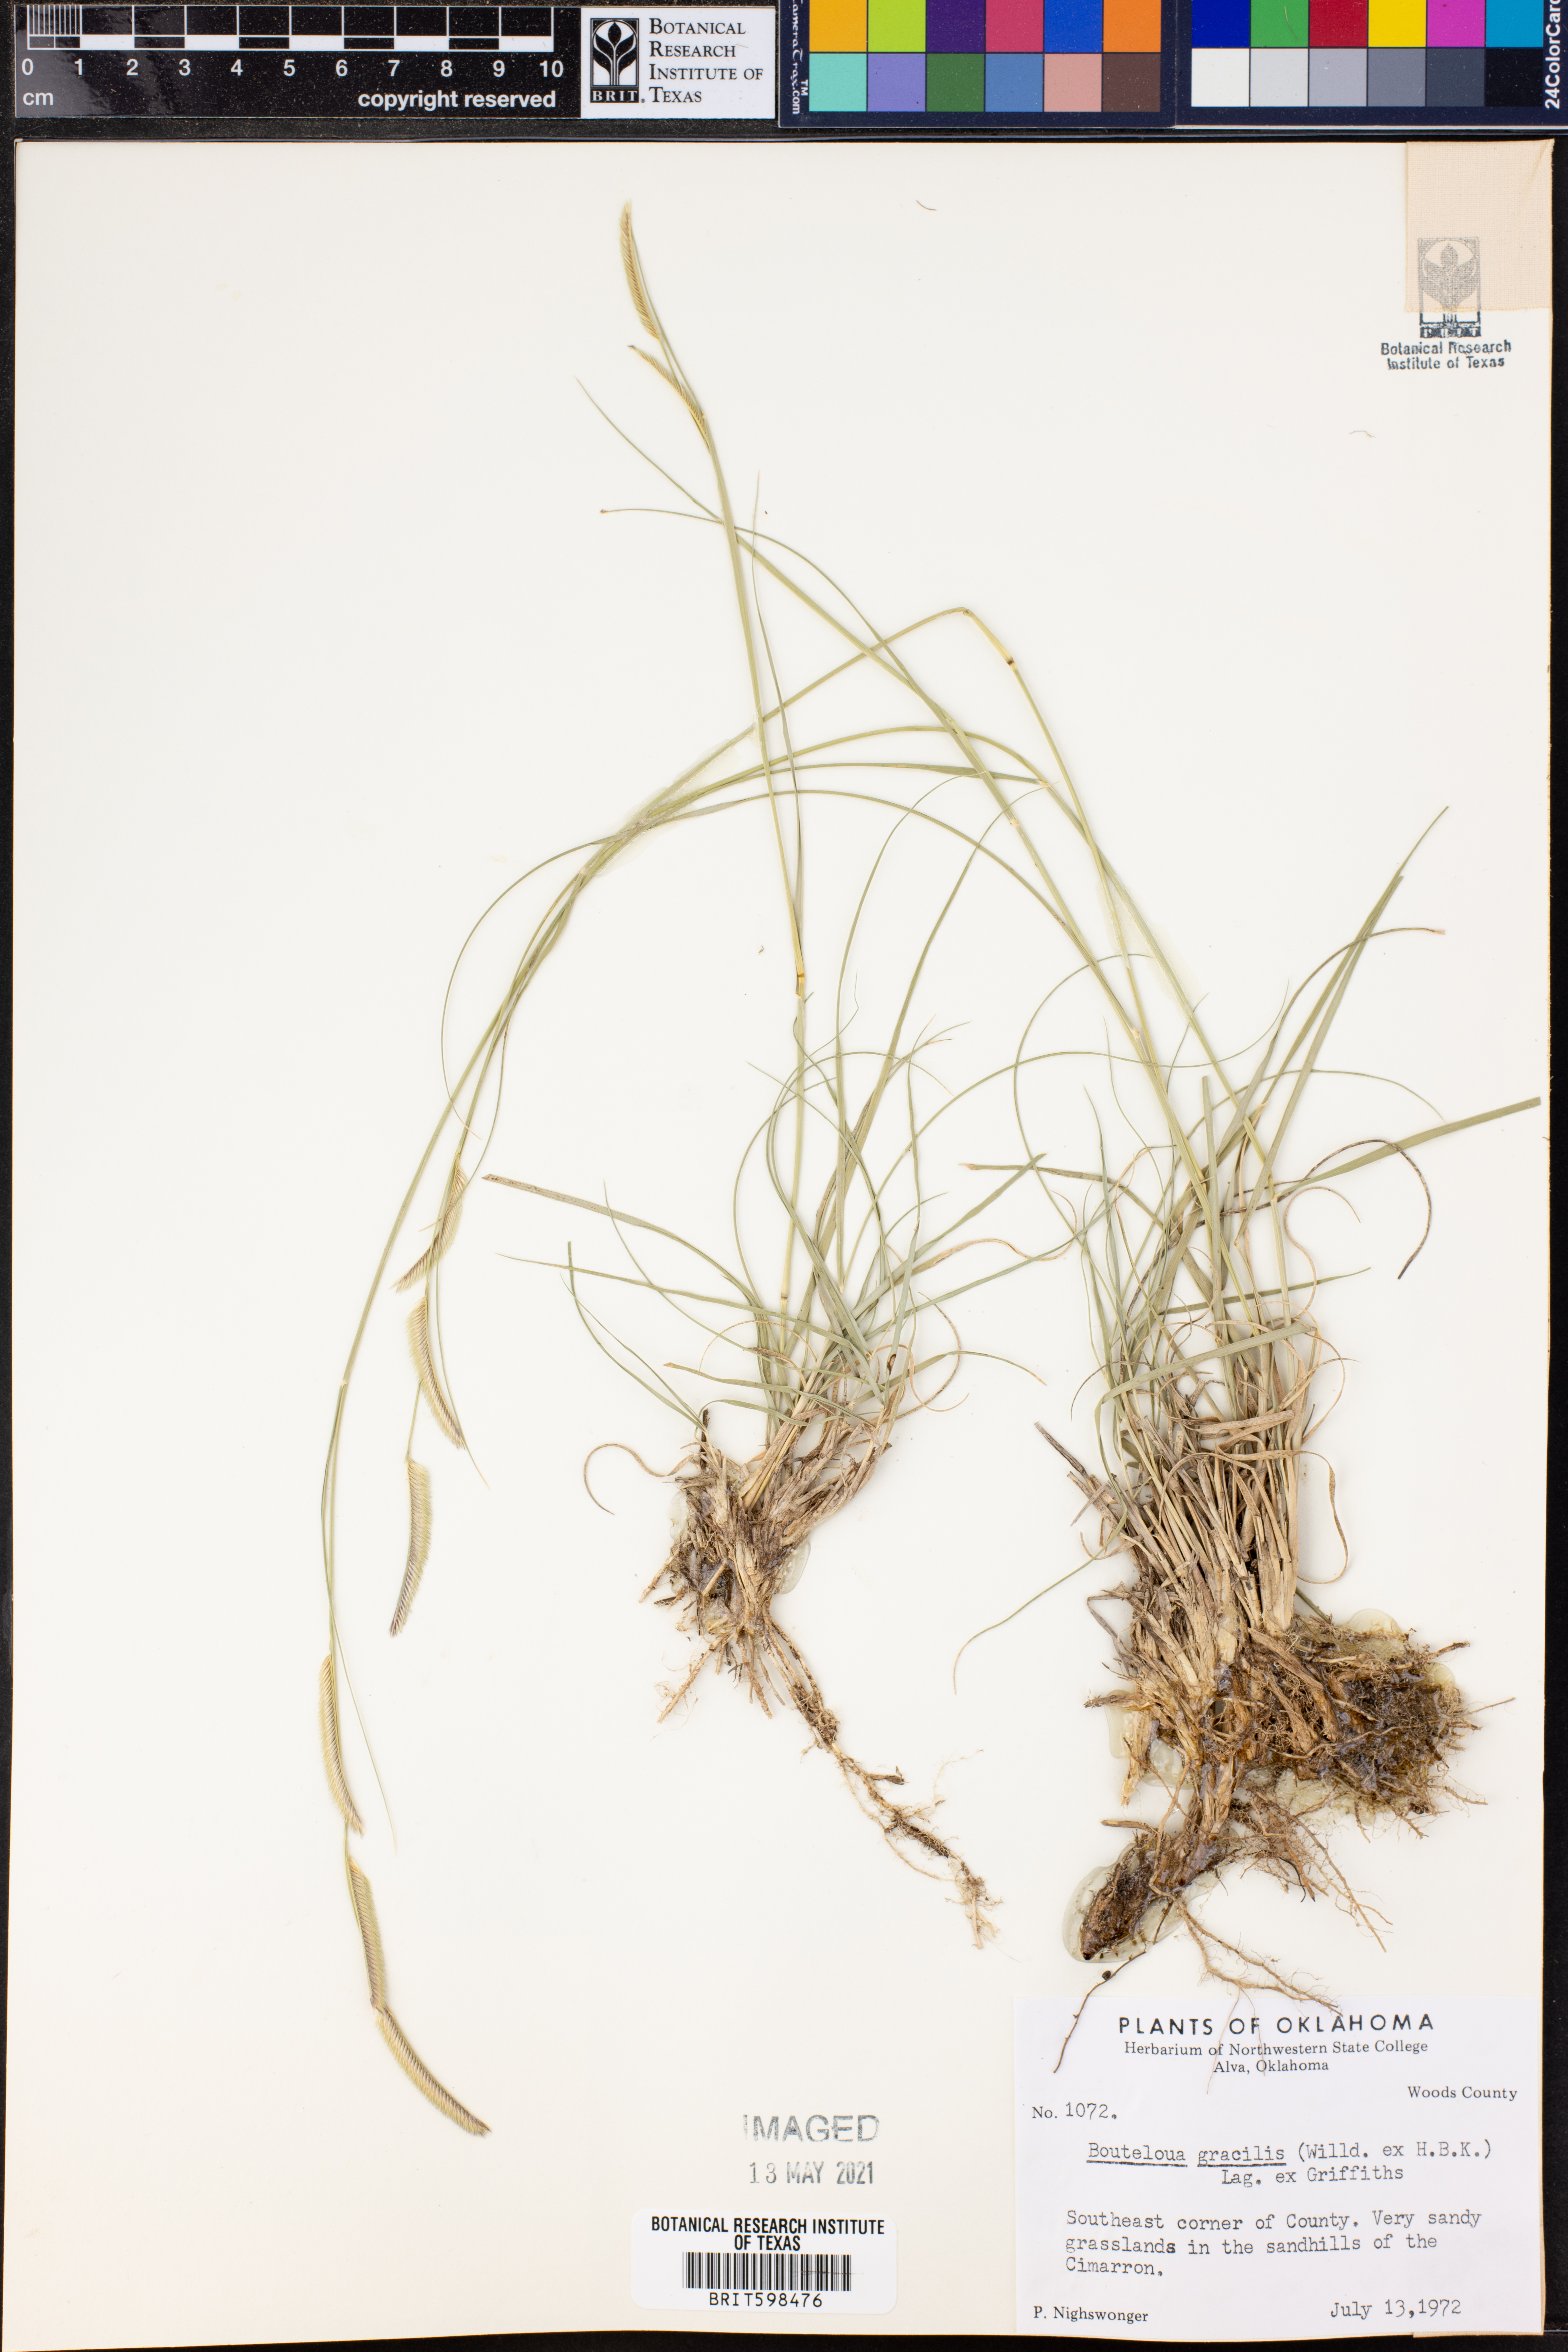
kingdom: Plantae
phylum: Tracheophyta
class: Liliopsida
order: Poales
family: Poaceae
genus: Bouteloua
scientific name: Bouteloua gracilis
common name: Blue grama
